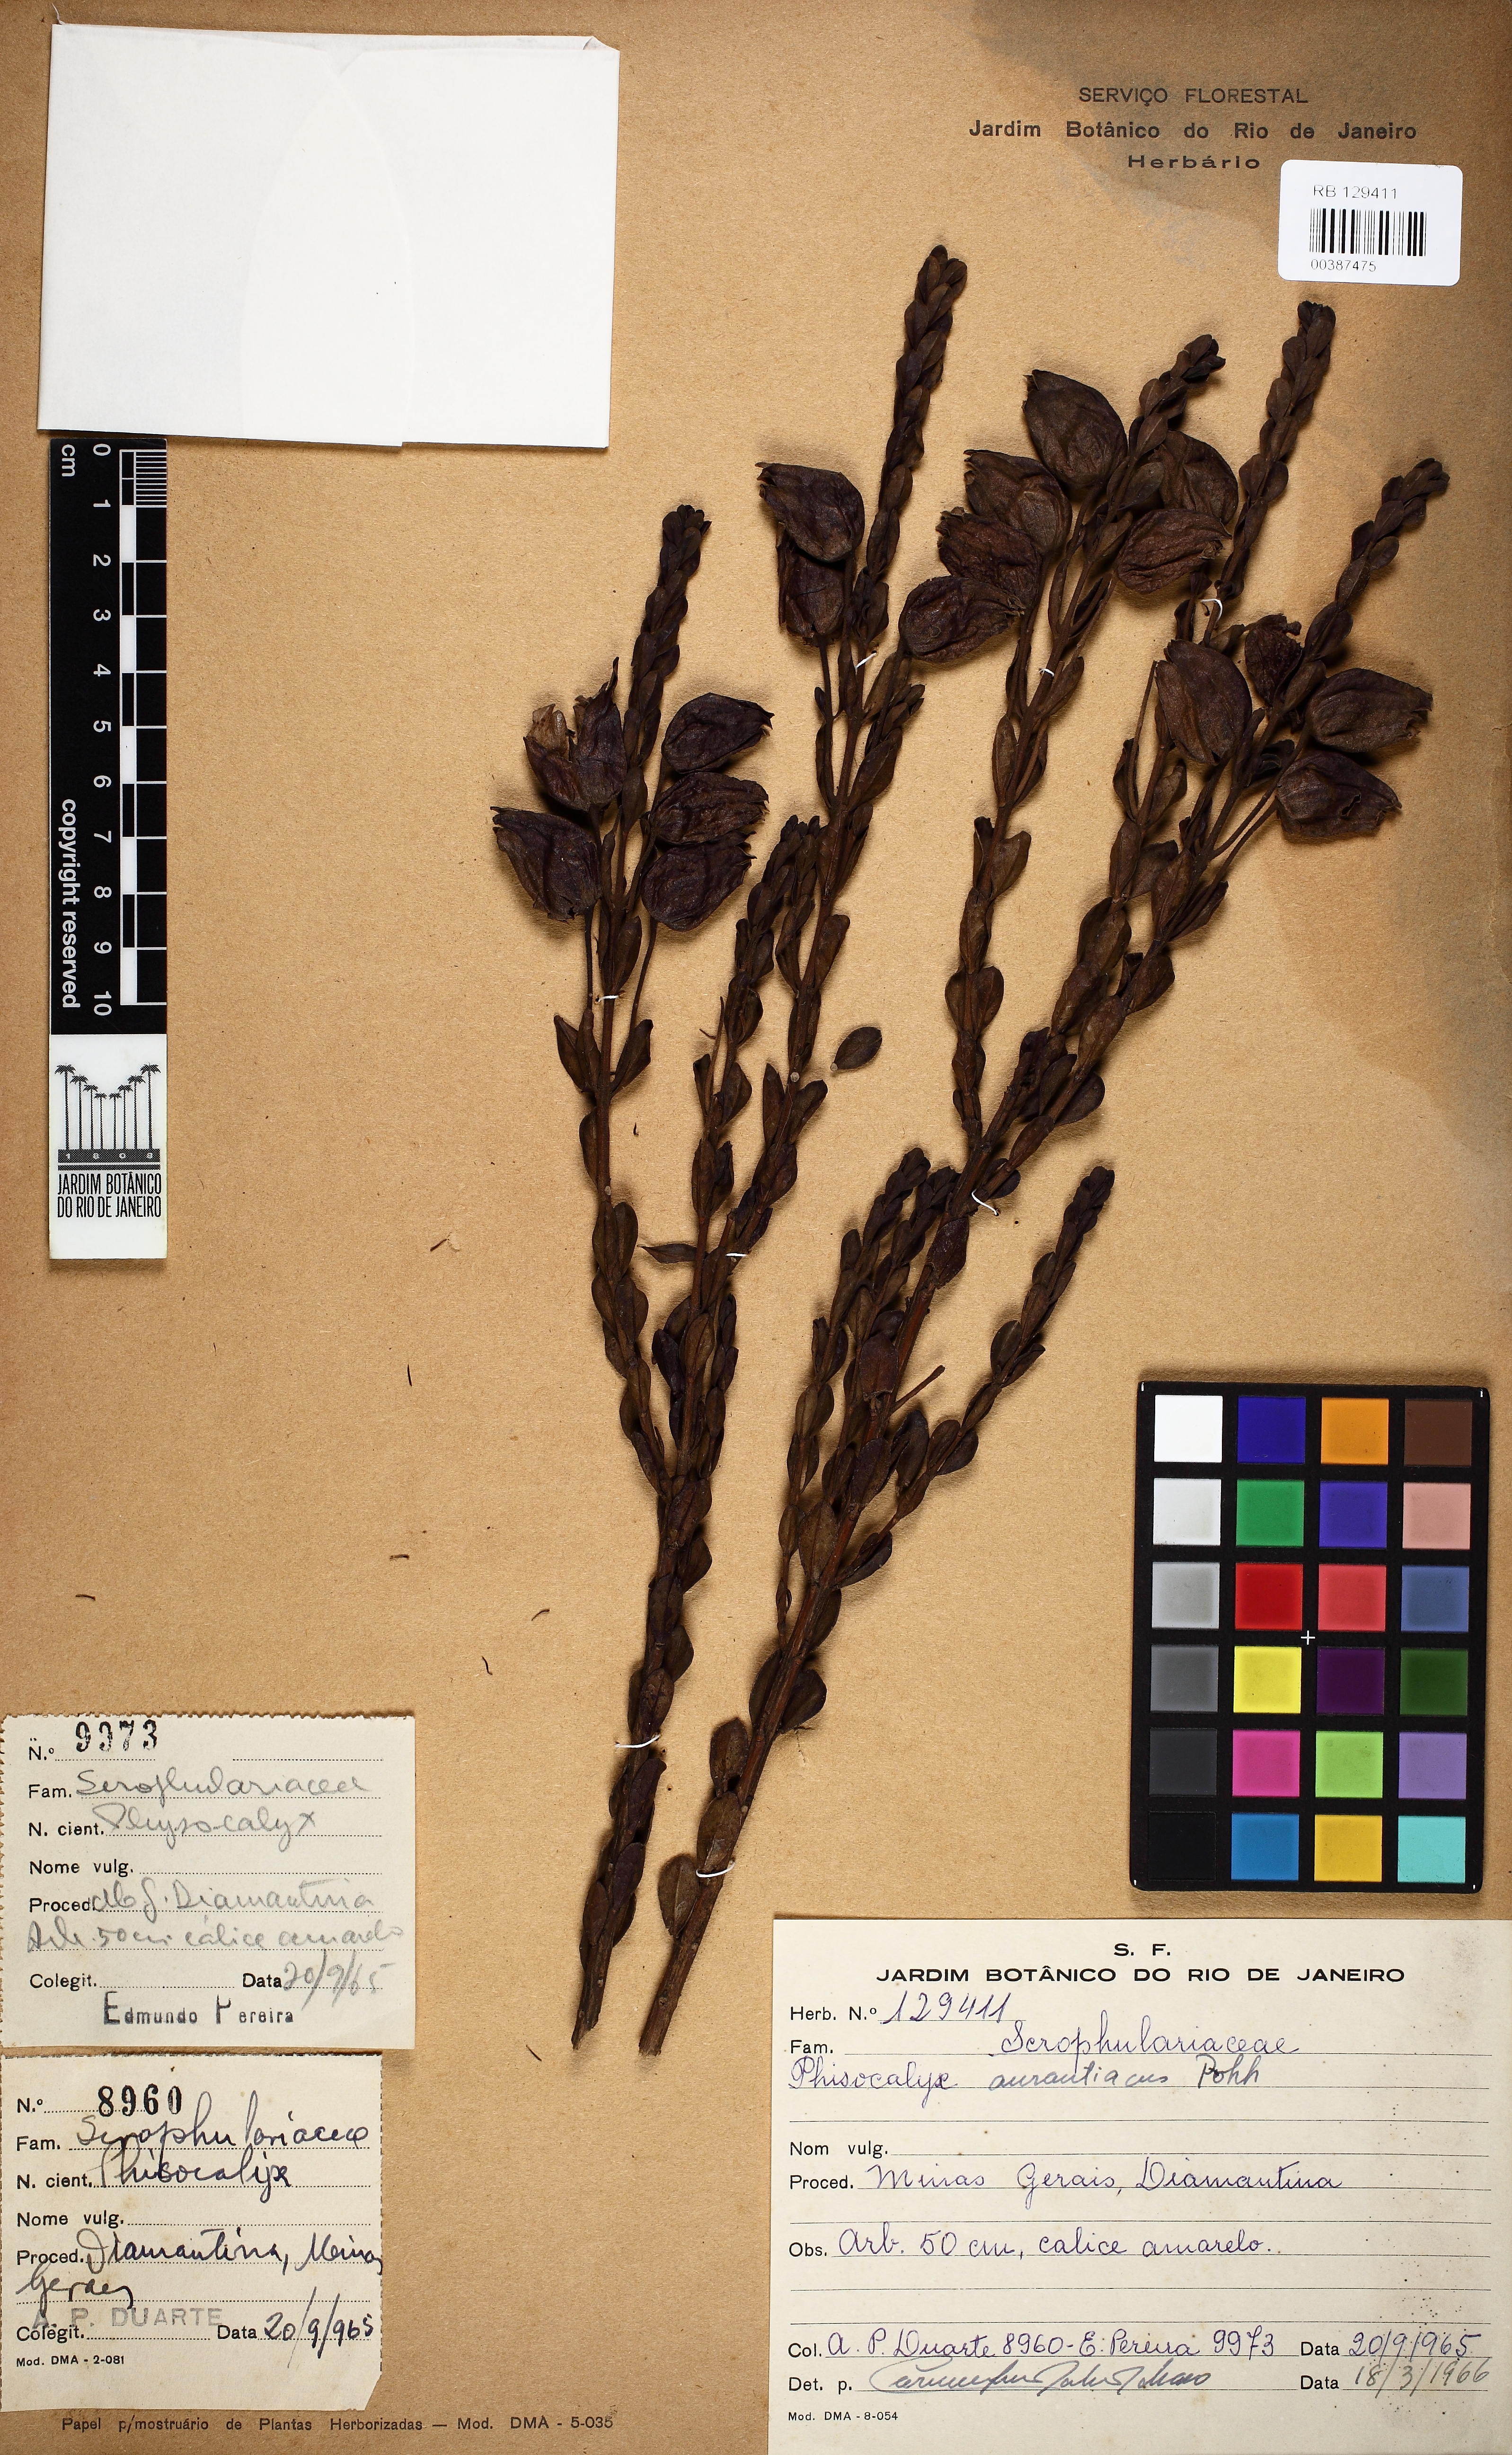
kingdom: Plantae
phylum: Tracheophyta
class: Magnoliopsida
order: Lamiales
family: Orobanchaceae
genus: Physocalyx
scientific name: Physocalyx aurantiacus
